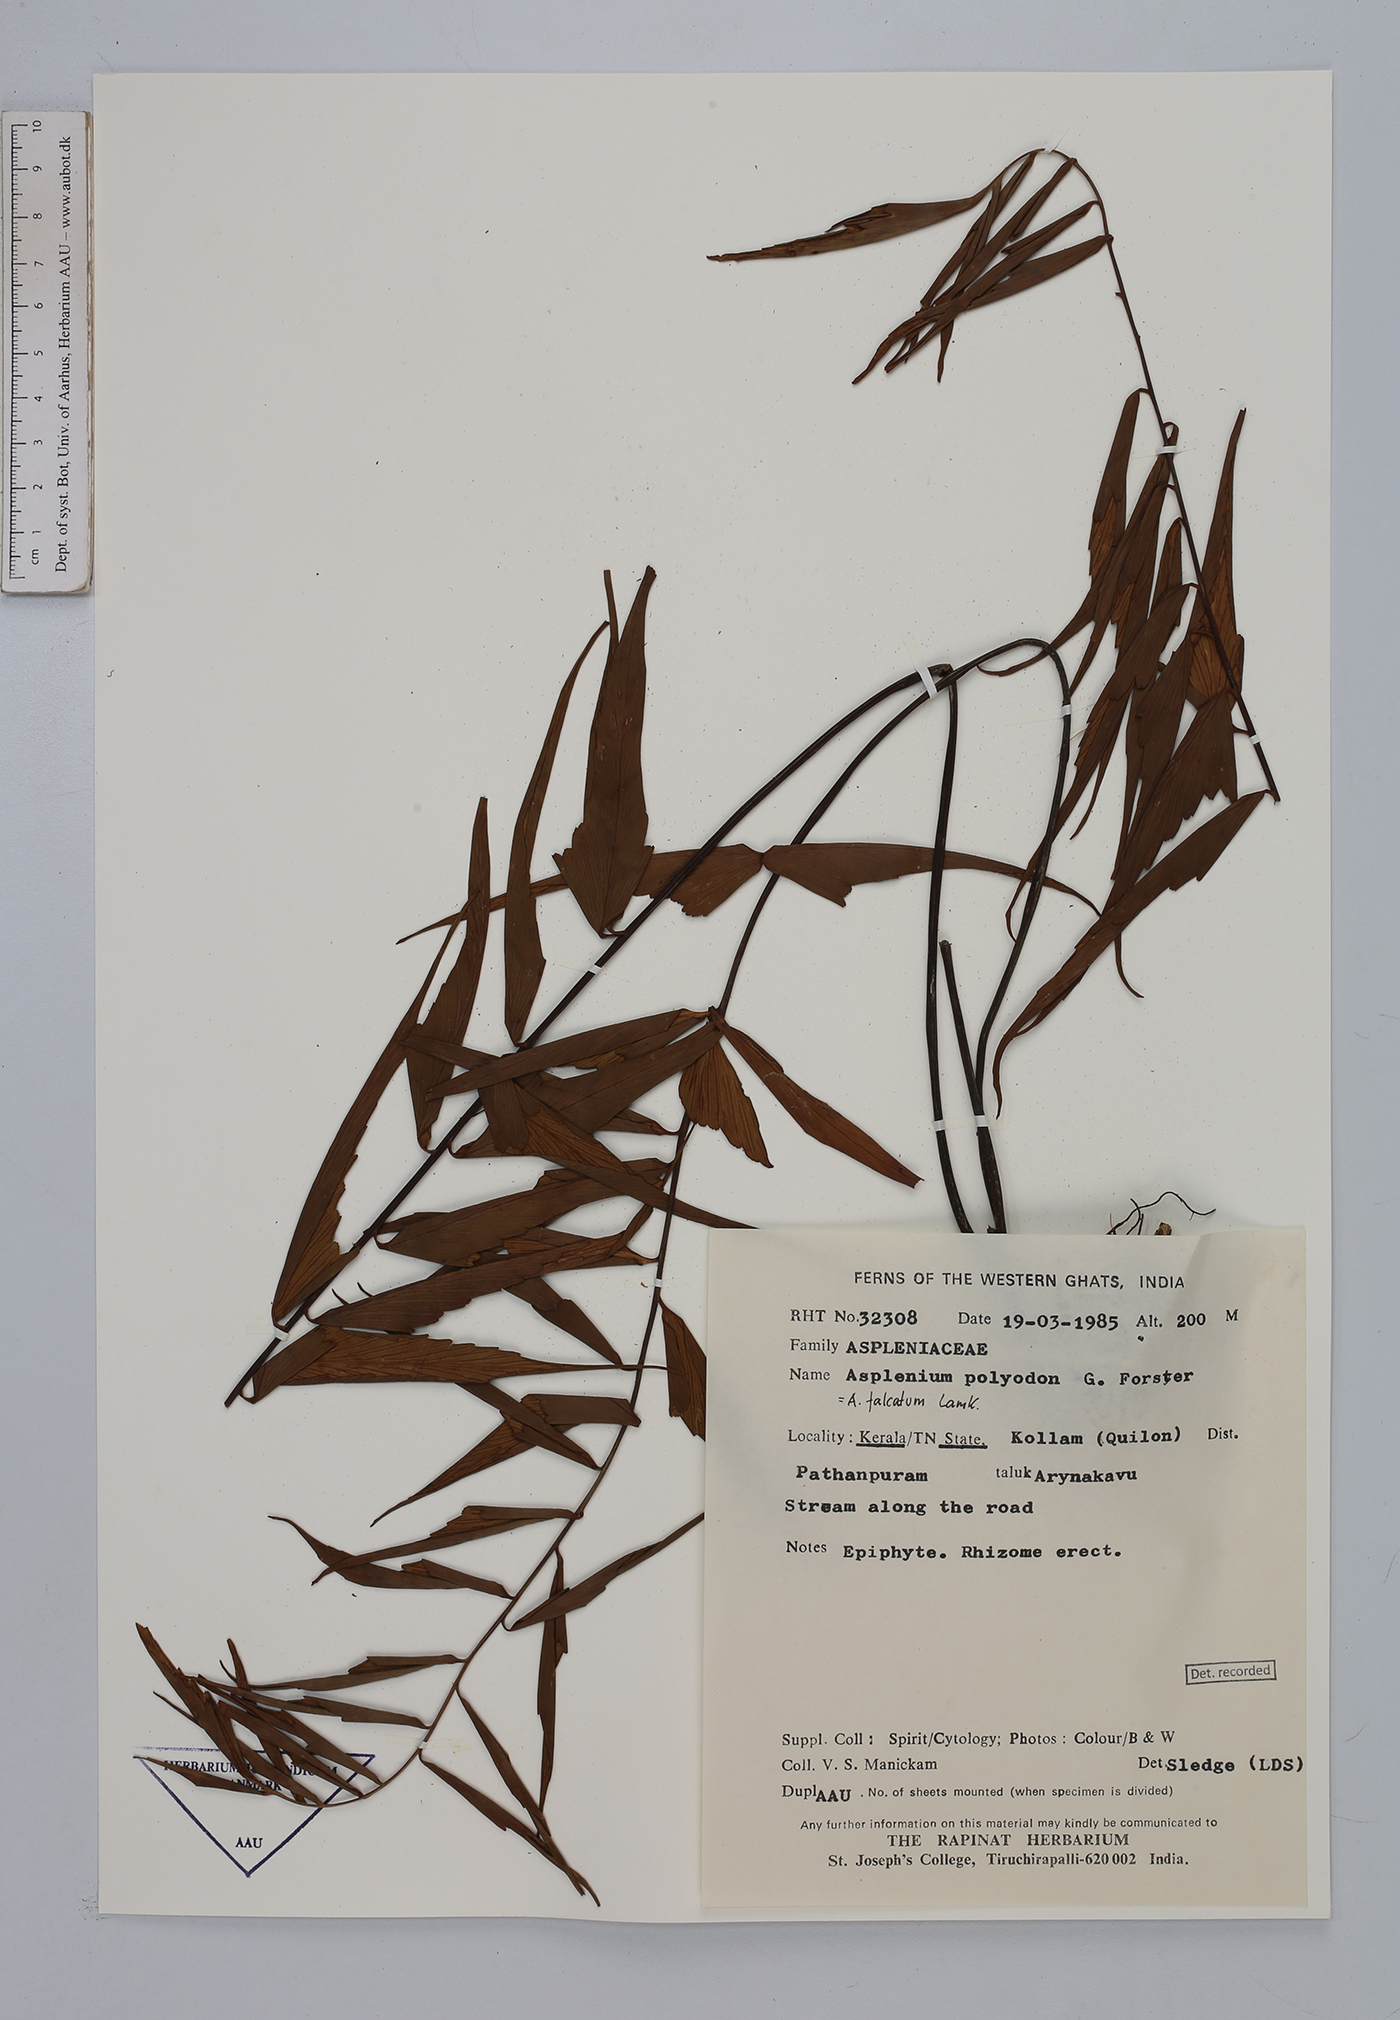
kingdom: Plantae
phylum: Tracheophyta
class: Polypodiopsida
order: Polypodiales
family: Aspleniaceae
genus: Asplenium
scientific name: Asplenium falcatum
